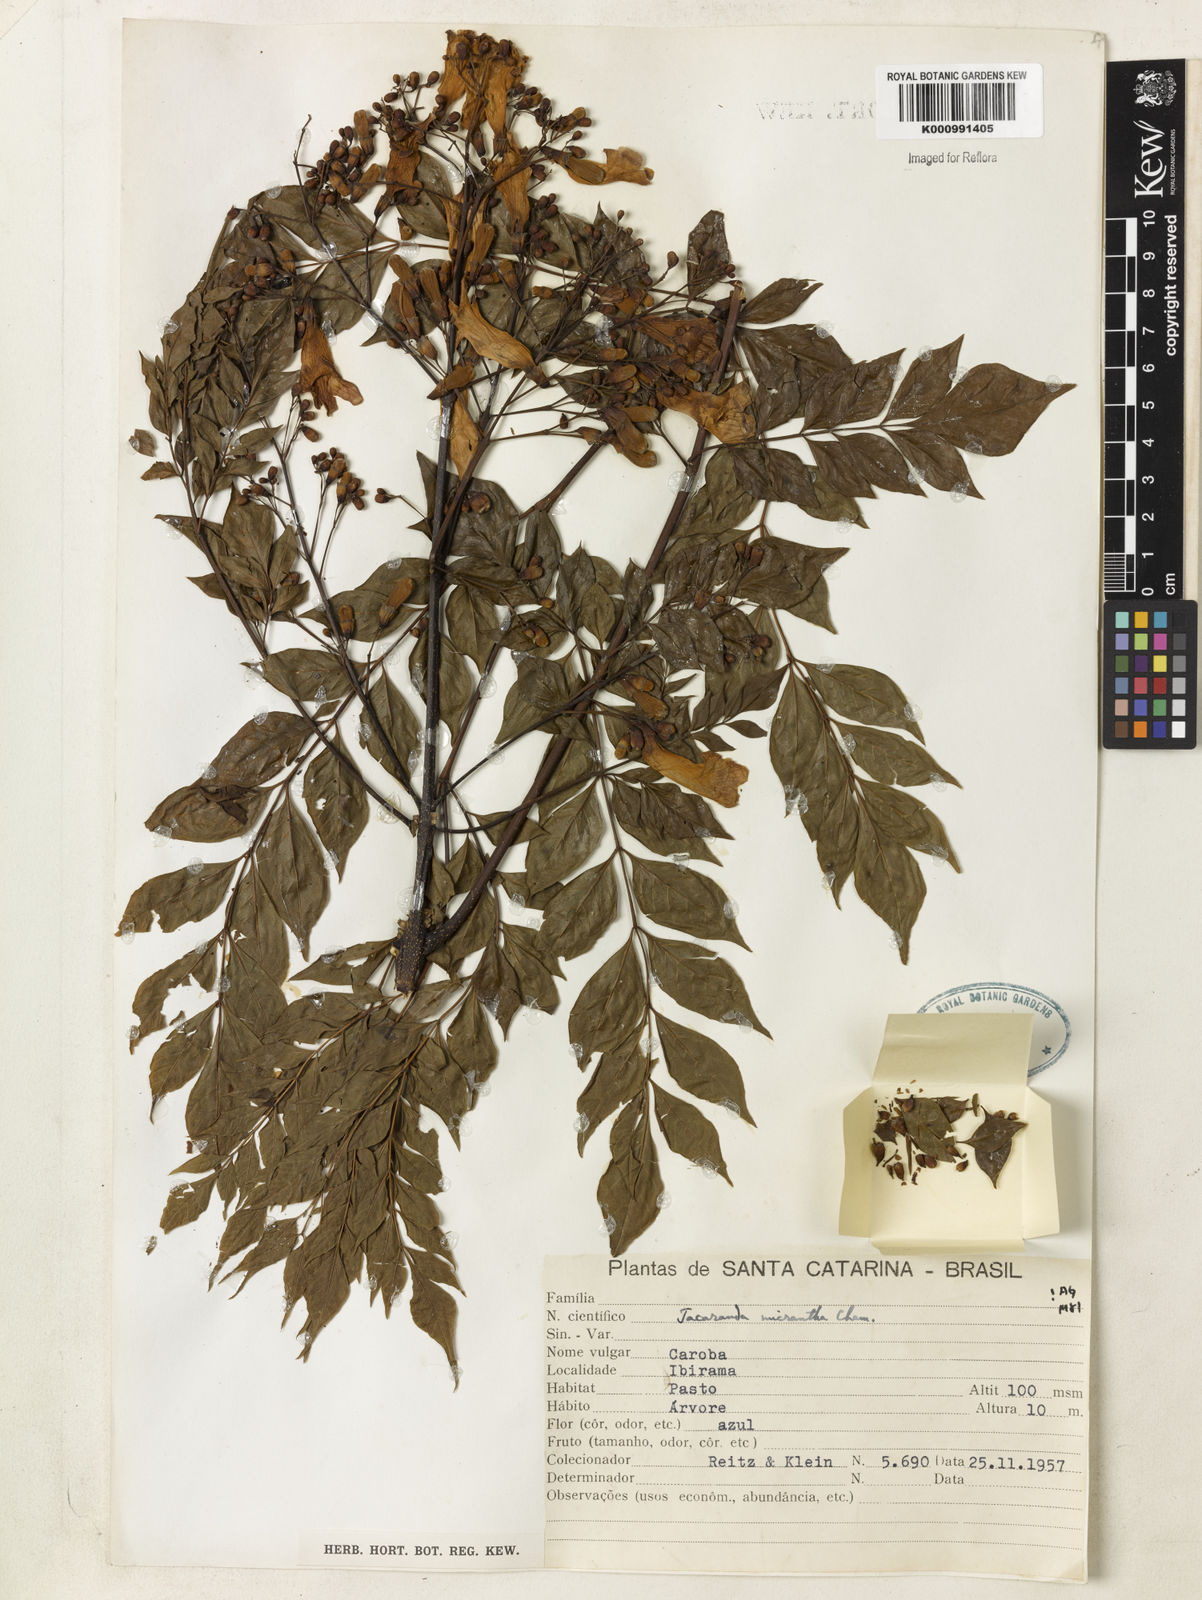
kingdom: Plantae
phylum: Tracheophyta
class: Magnoliopsida
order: Lamiales
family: Bignoniaceae
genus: Jacaranda
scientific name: Jacaranda micrantha
